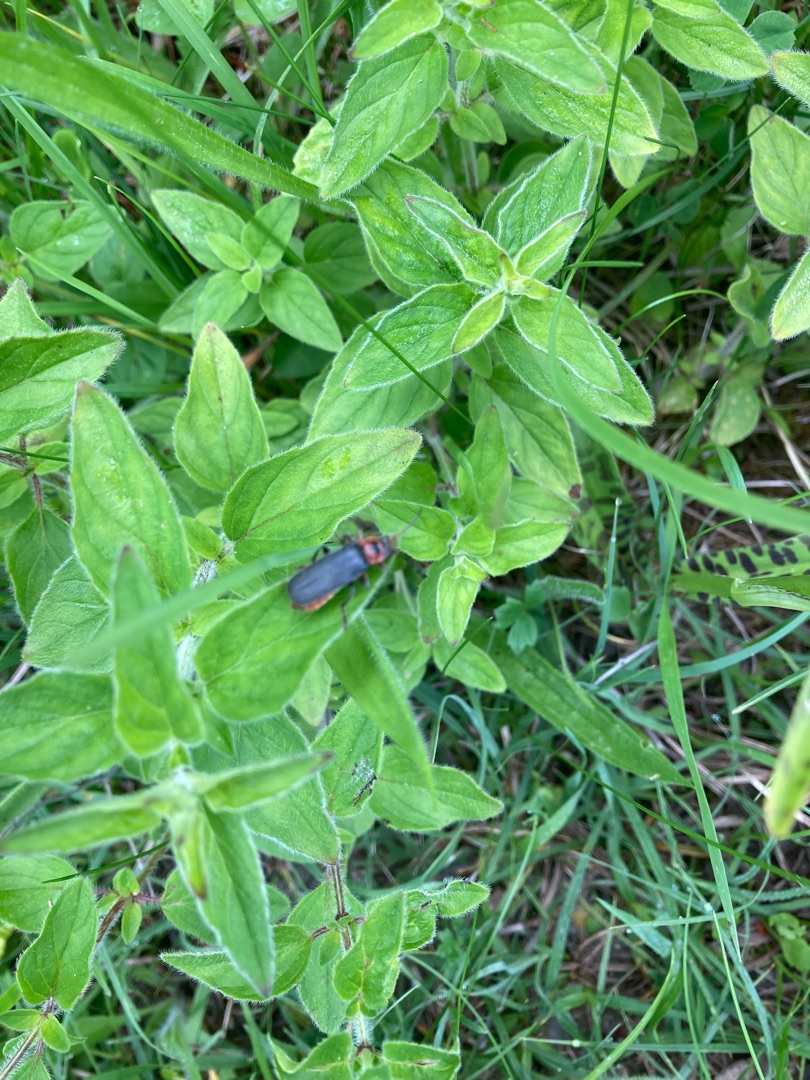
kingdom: Animalia
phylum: Arthropoda
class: Insecta
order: Coleoptera
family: Cantharidae
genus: Cantharis
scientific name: Cantharis rustica
